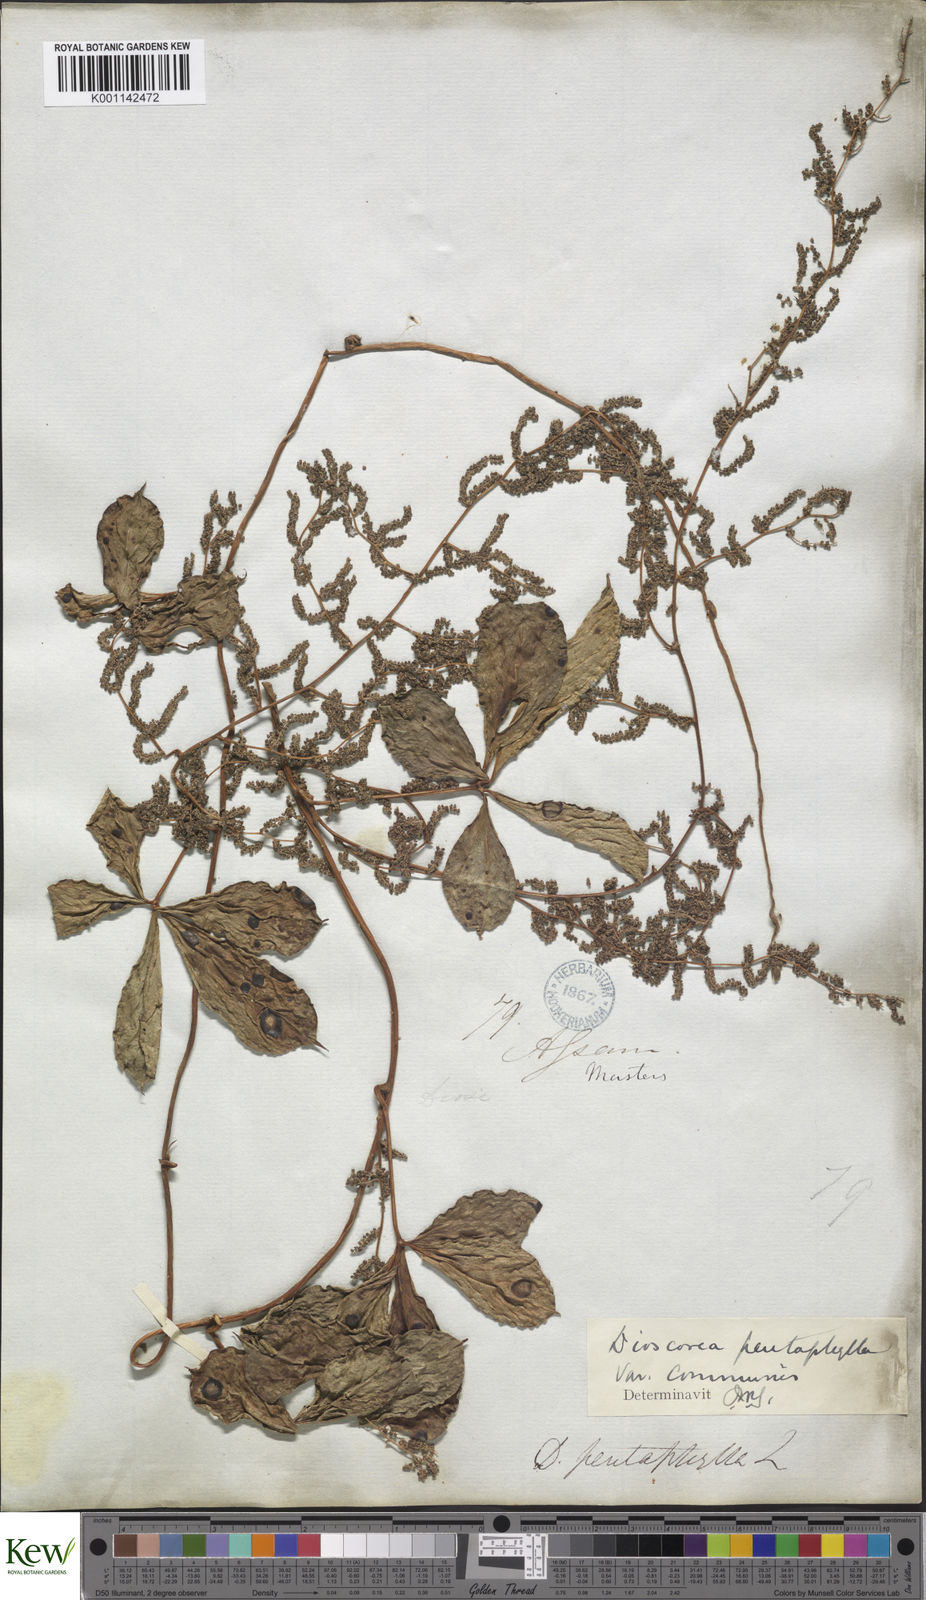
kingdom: Plantae
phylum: Tracheophyta
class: Liliopsida
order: Dioscoreales
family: Dioscoreaceae
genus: Dioscorea
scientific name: Dioscorea pentaphylla
